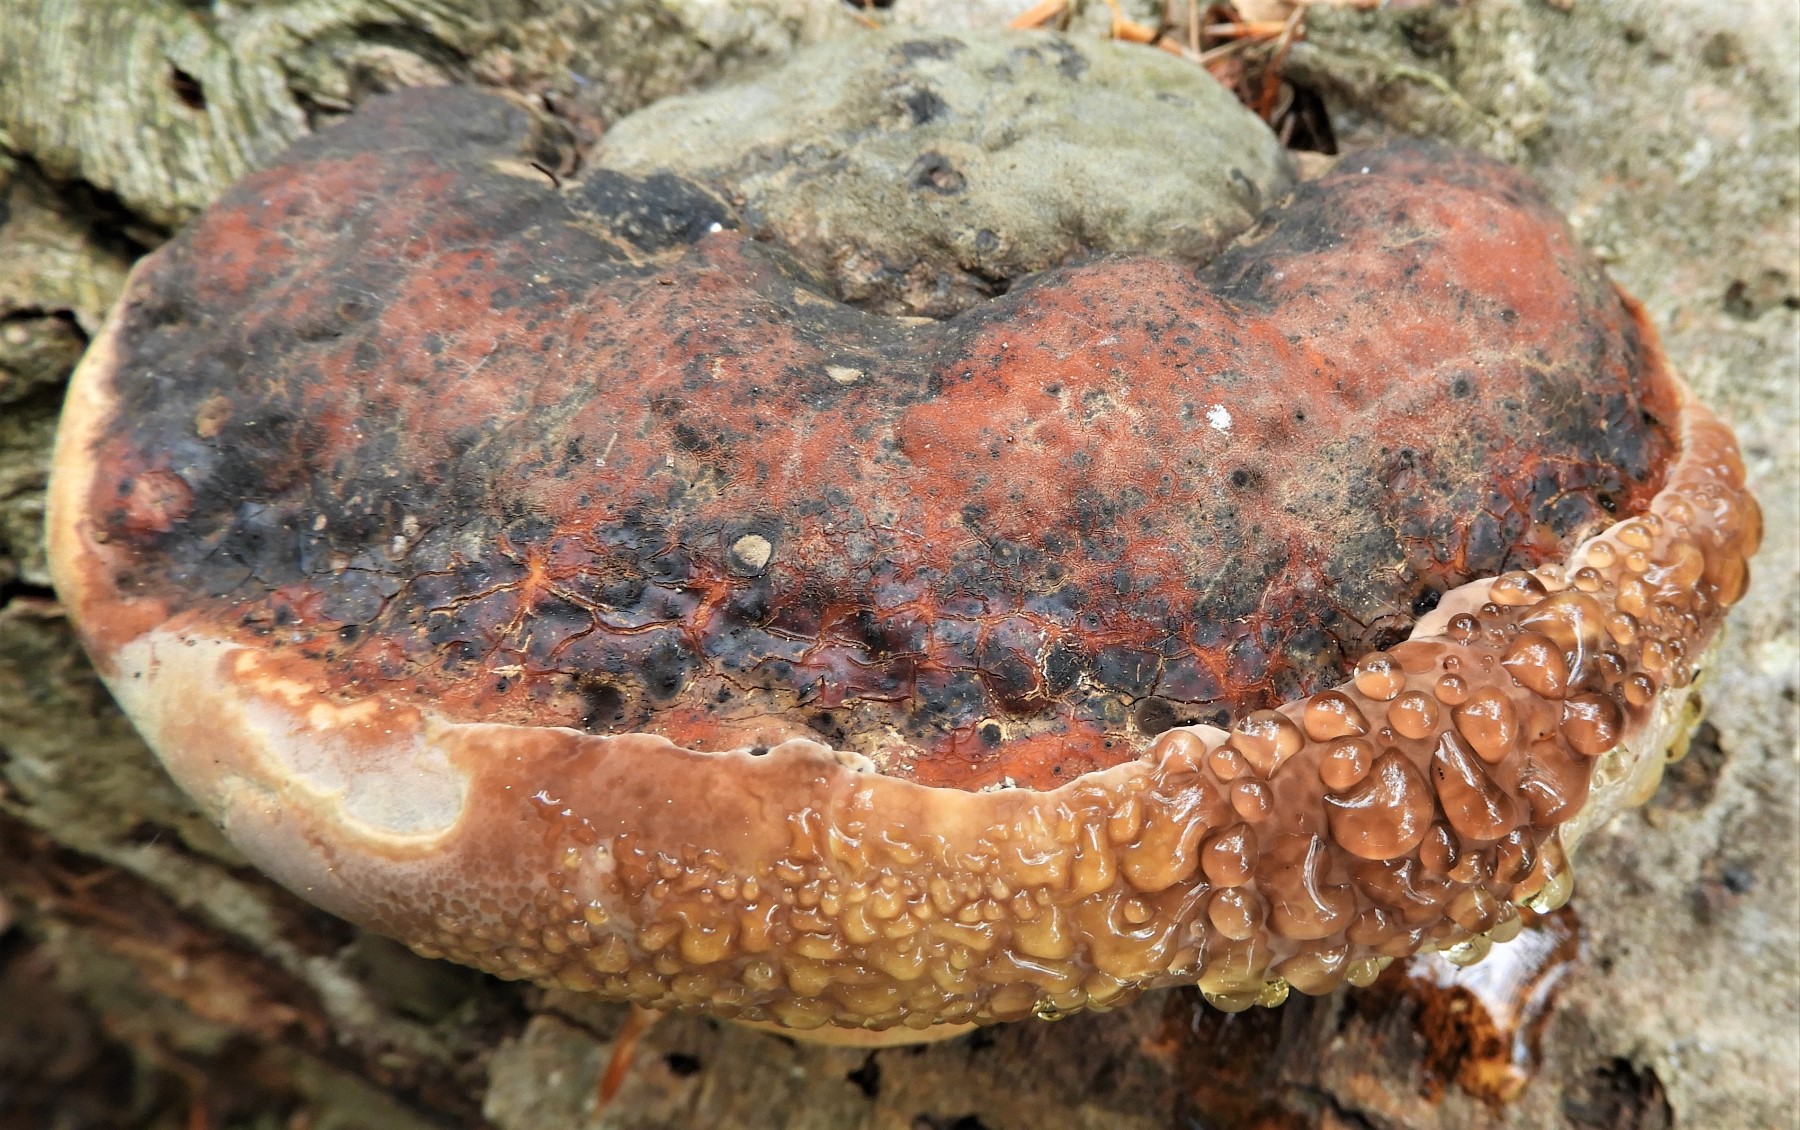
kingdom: Fungi
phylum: Basidiomycota
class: Agaricomycetes
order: Polyporales
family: Fomitopsidaceae
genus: Fomitopsis
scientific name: Fomitopsis pinicola
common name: randbæltet hovporesvamp
